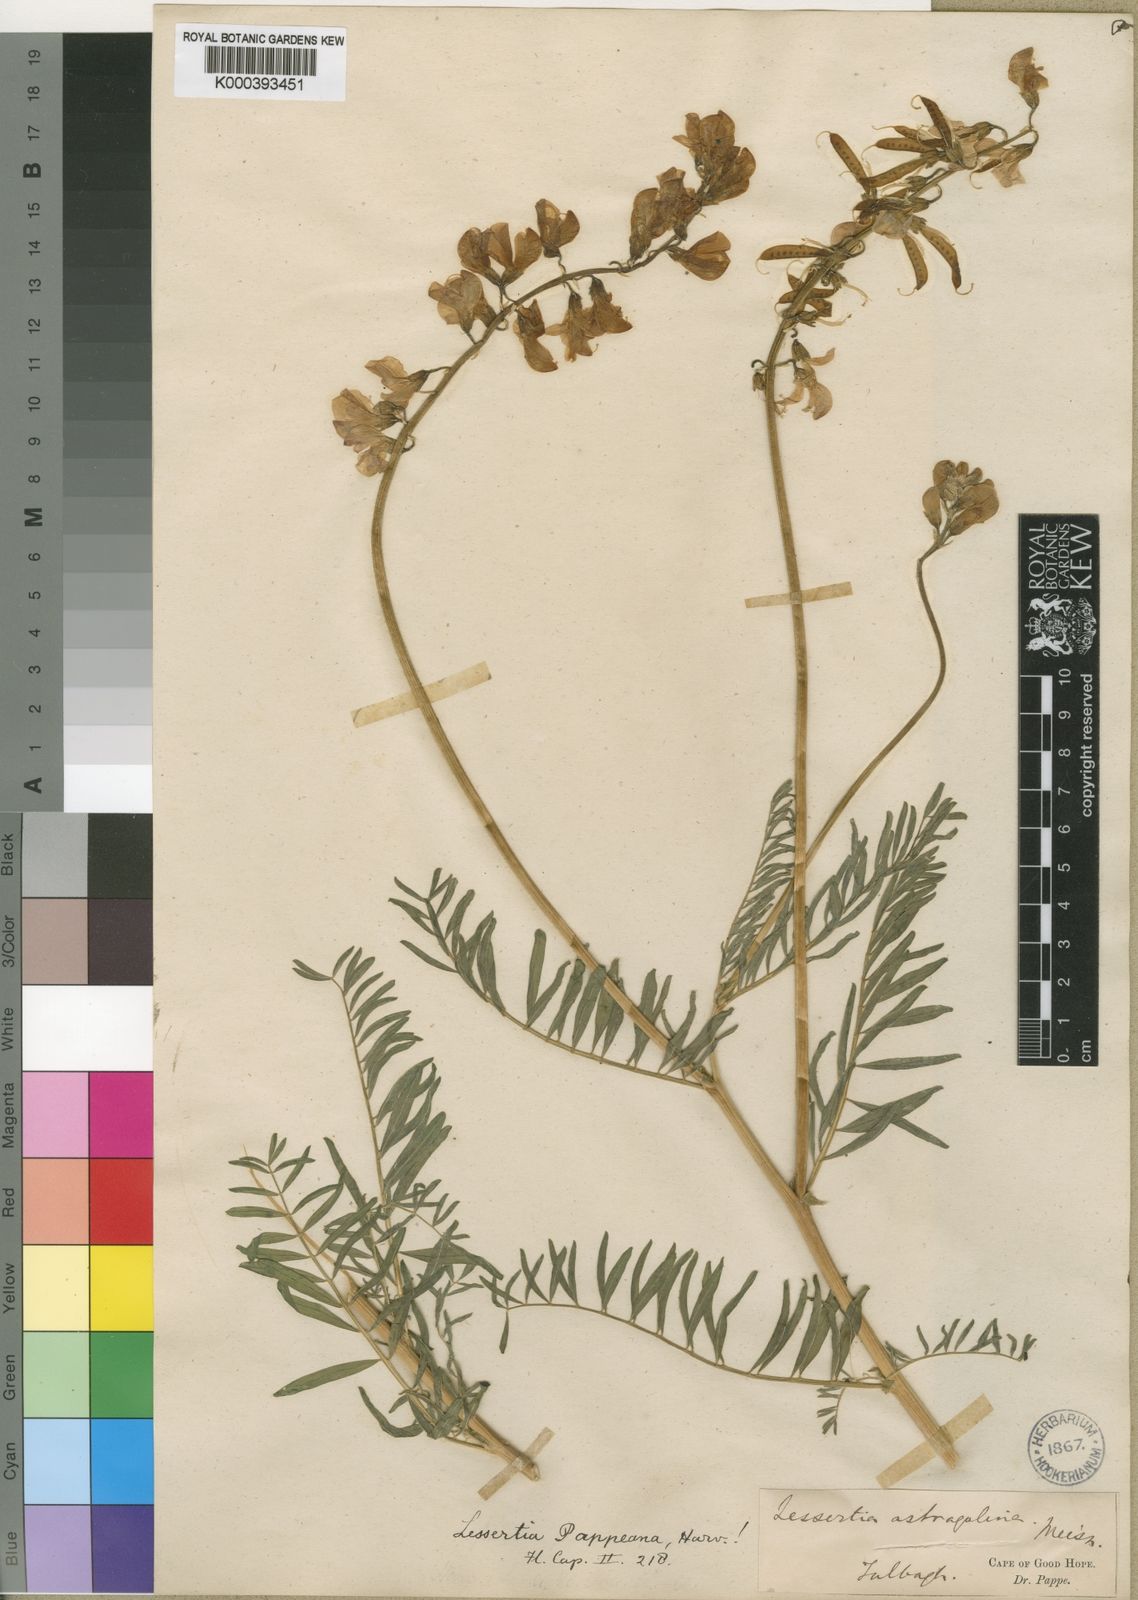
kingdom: Plantae
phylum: Tracheophyta
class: Magnoliopsida
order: Fabales
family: Fabaceae
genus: Lessertia
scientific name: Lessertia pappeana
